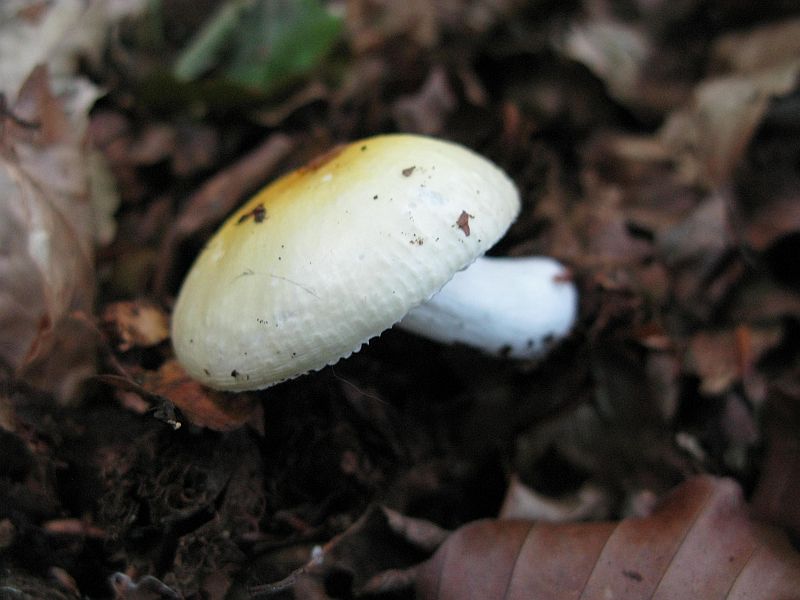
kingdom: Fungi
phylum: Basidiomycota
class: Agaricomycetes
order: Russulales
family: Russulaceae
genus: Russula
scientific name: Russula solaris
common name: sol-skørhat
